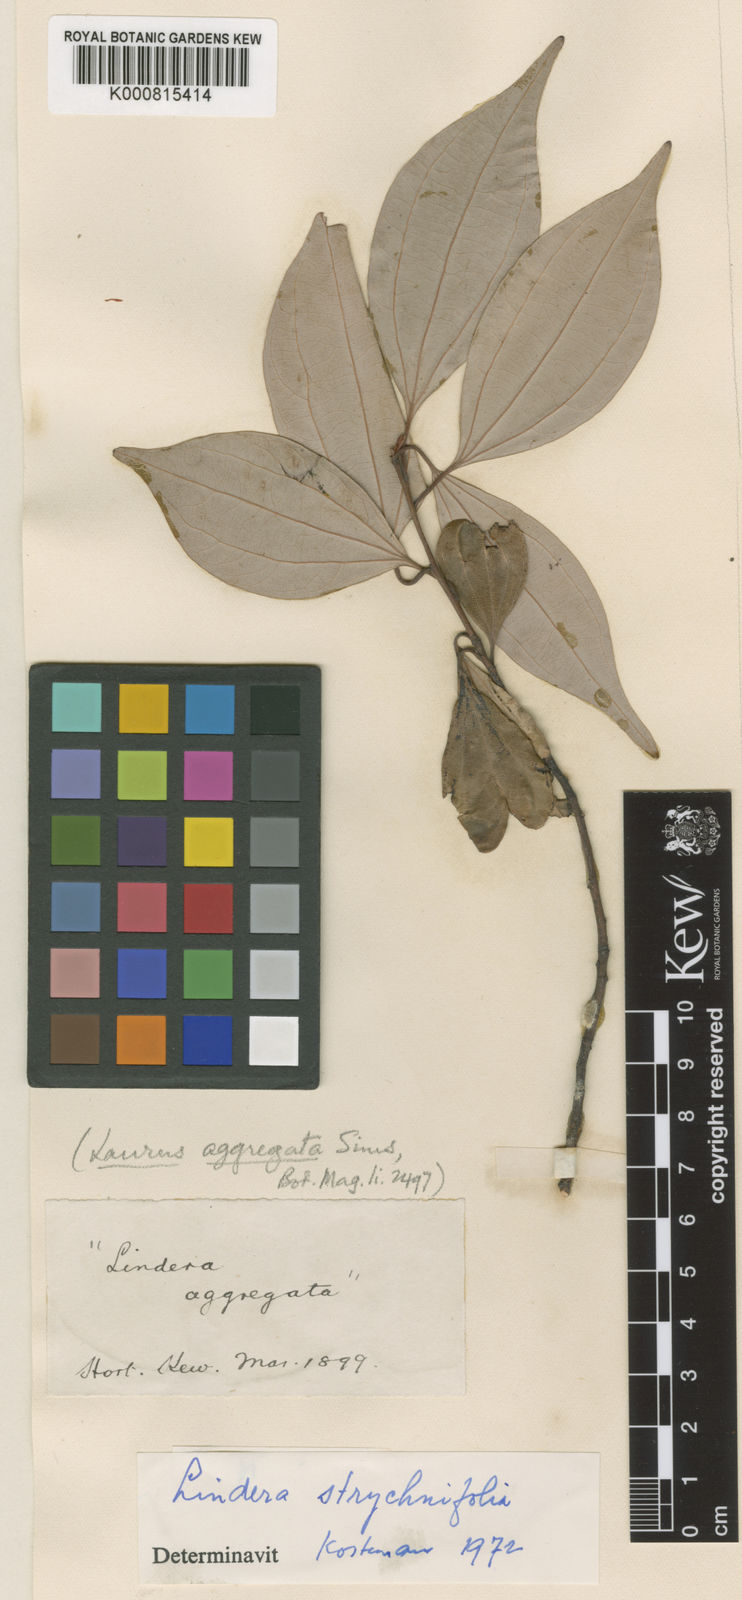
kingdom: Plantae
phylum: Tracheophyta
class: Magnoliopsida
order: Laurales
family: Lauraceae
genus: Lindera
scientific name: Lindera aggregata
